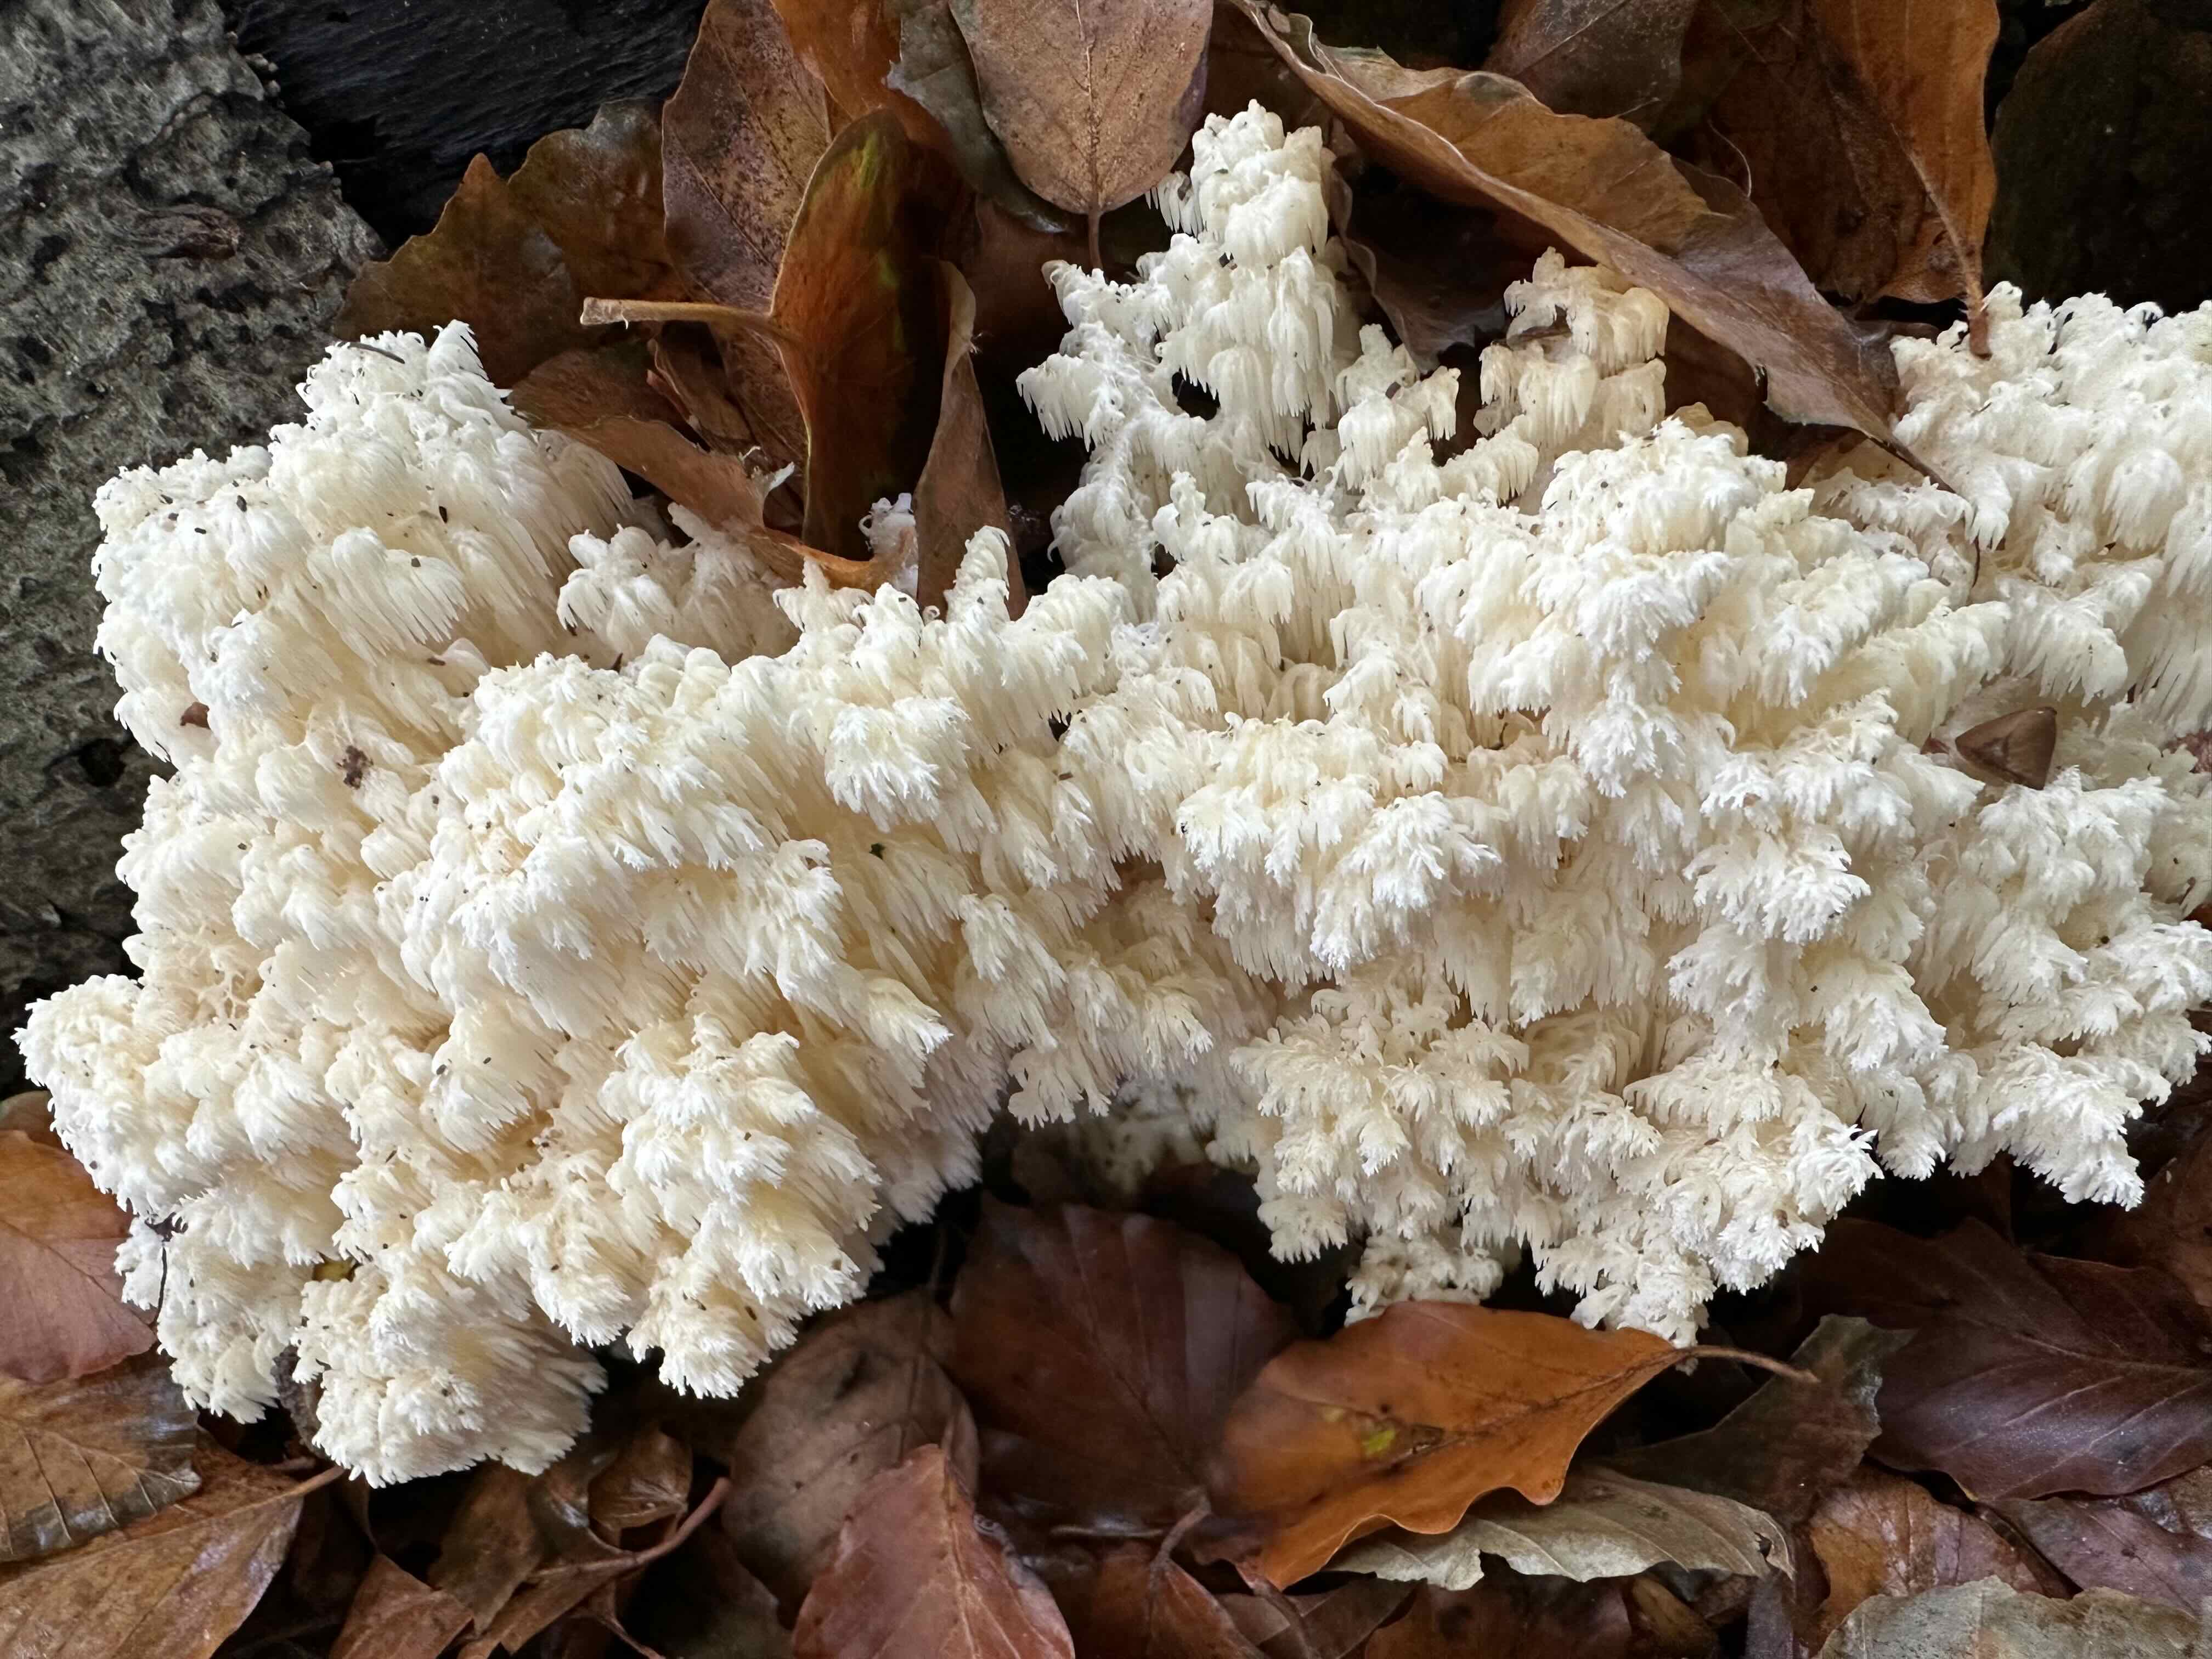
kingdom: Fungi
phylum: Basidiomycota
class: Agaricomycetes
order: Russulales
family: Hericiaceae
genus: Hericium
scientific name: Hericium coralloides
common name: koralpigsvamp
